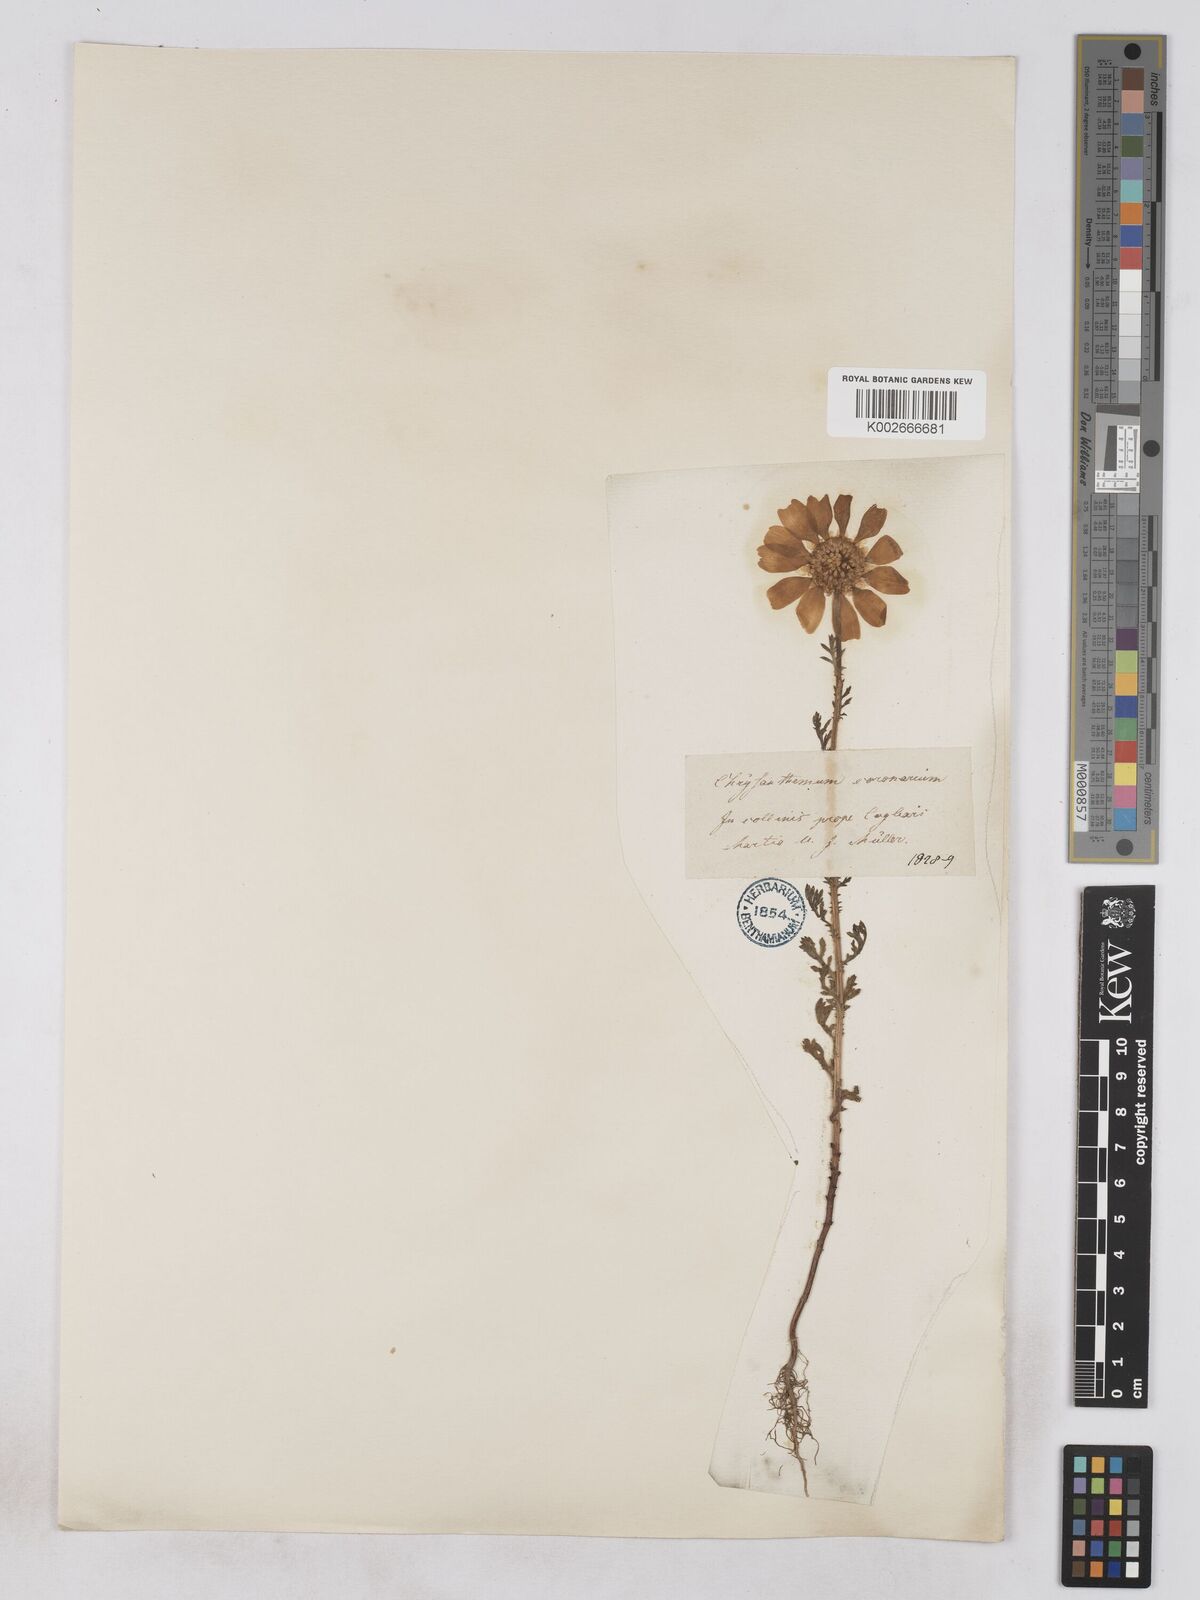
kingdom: Plantae
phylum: Tracheophyta
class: Magnoliopsida
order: Asterales
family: Asteraceae
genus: Glebionis
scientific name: Glebionis coronaria
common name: Crowndaisy
